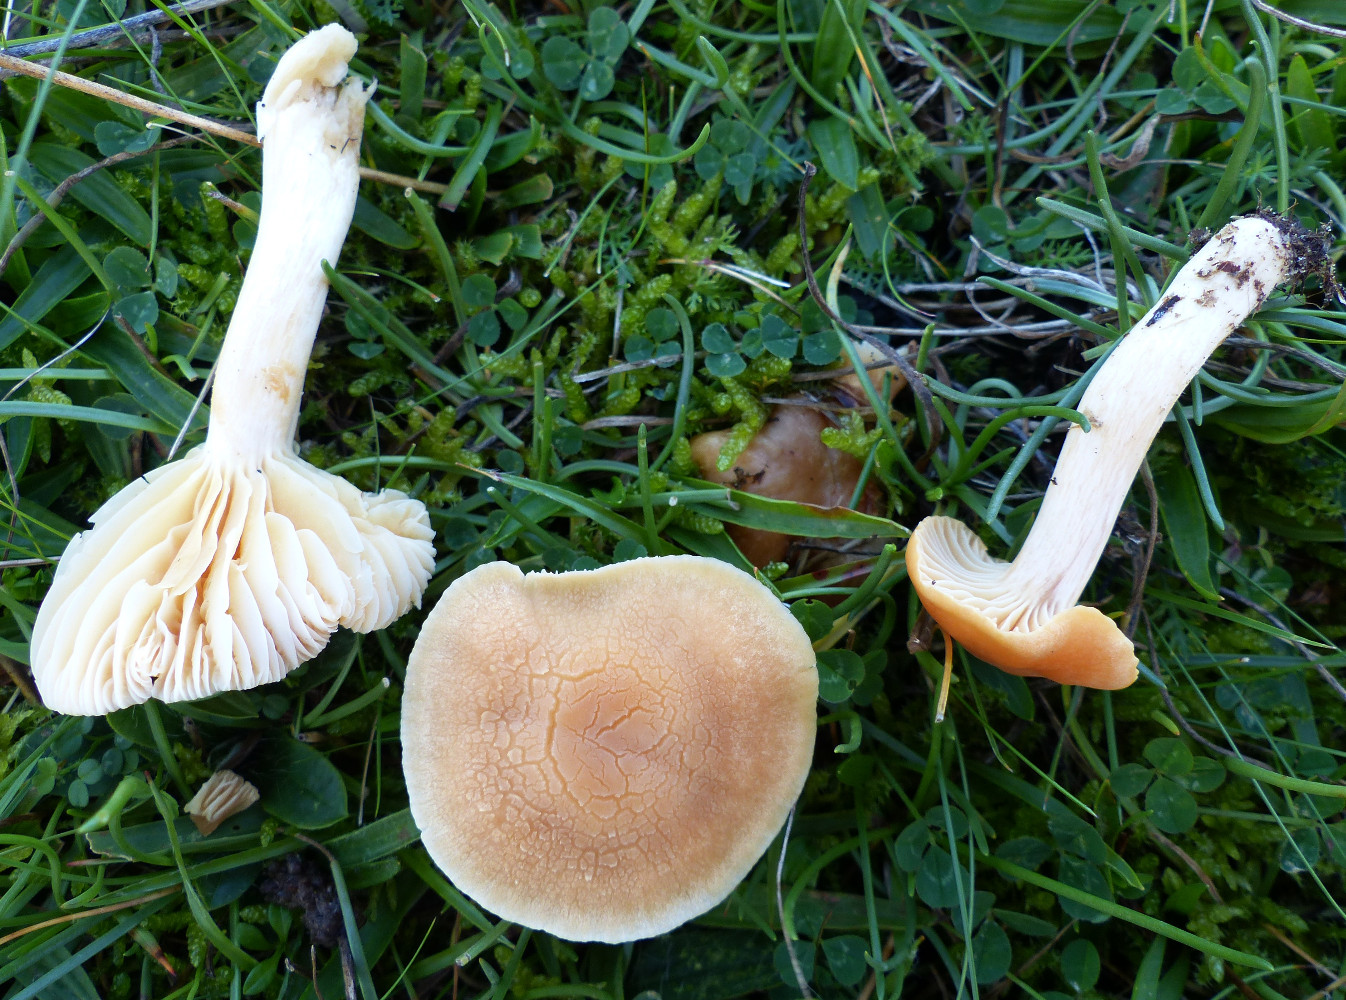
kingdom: Fungi
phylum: Basidiomycota
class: Agaricomycetes
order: Agaricales
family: Hygrophoraceae
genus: Cuphophyllus
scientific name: Cuphophyllus pratensis
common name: eng-vokshat
